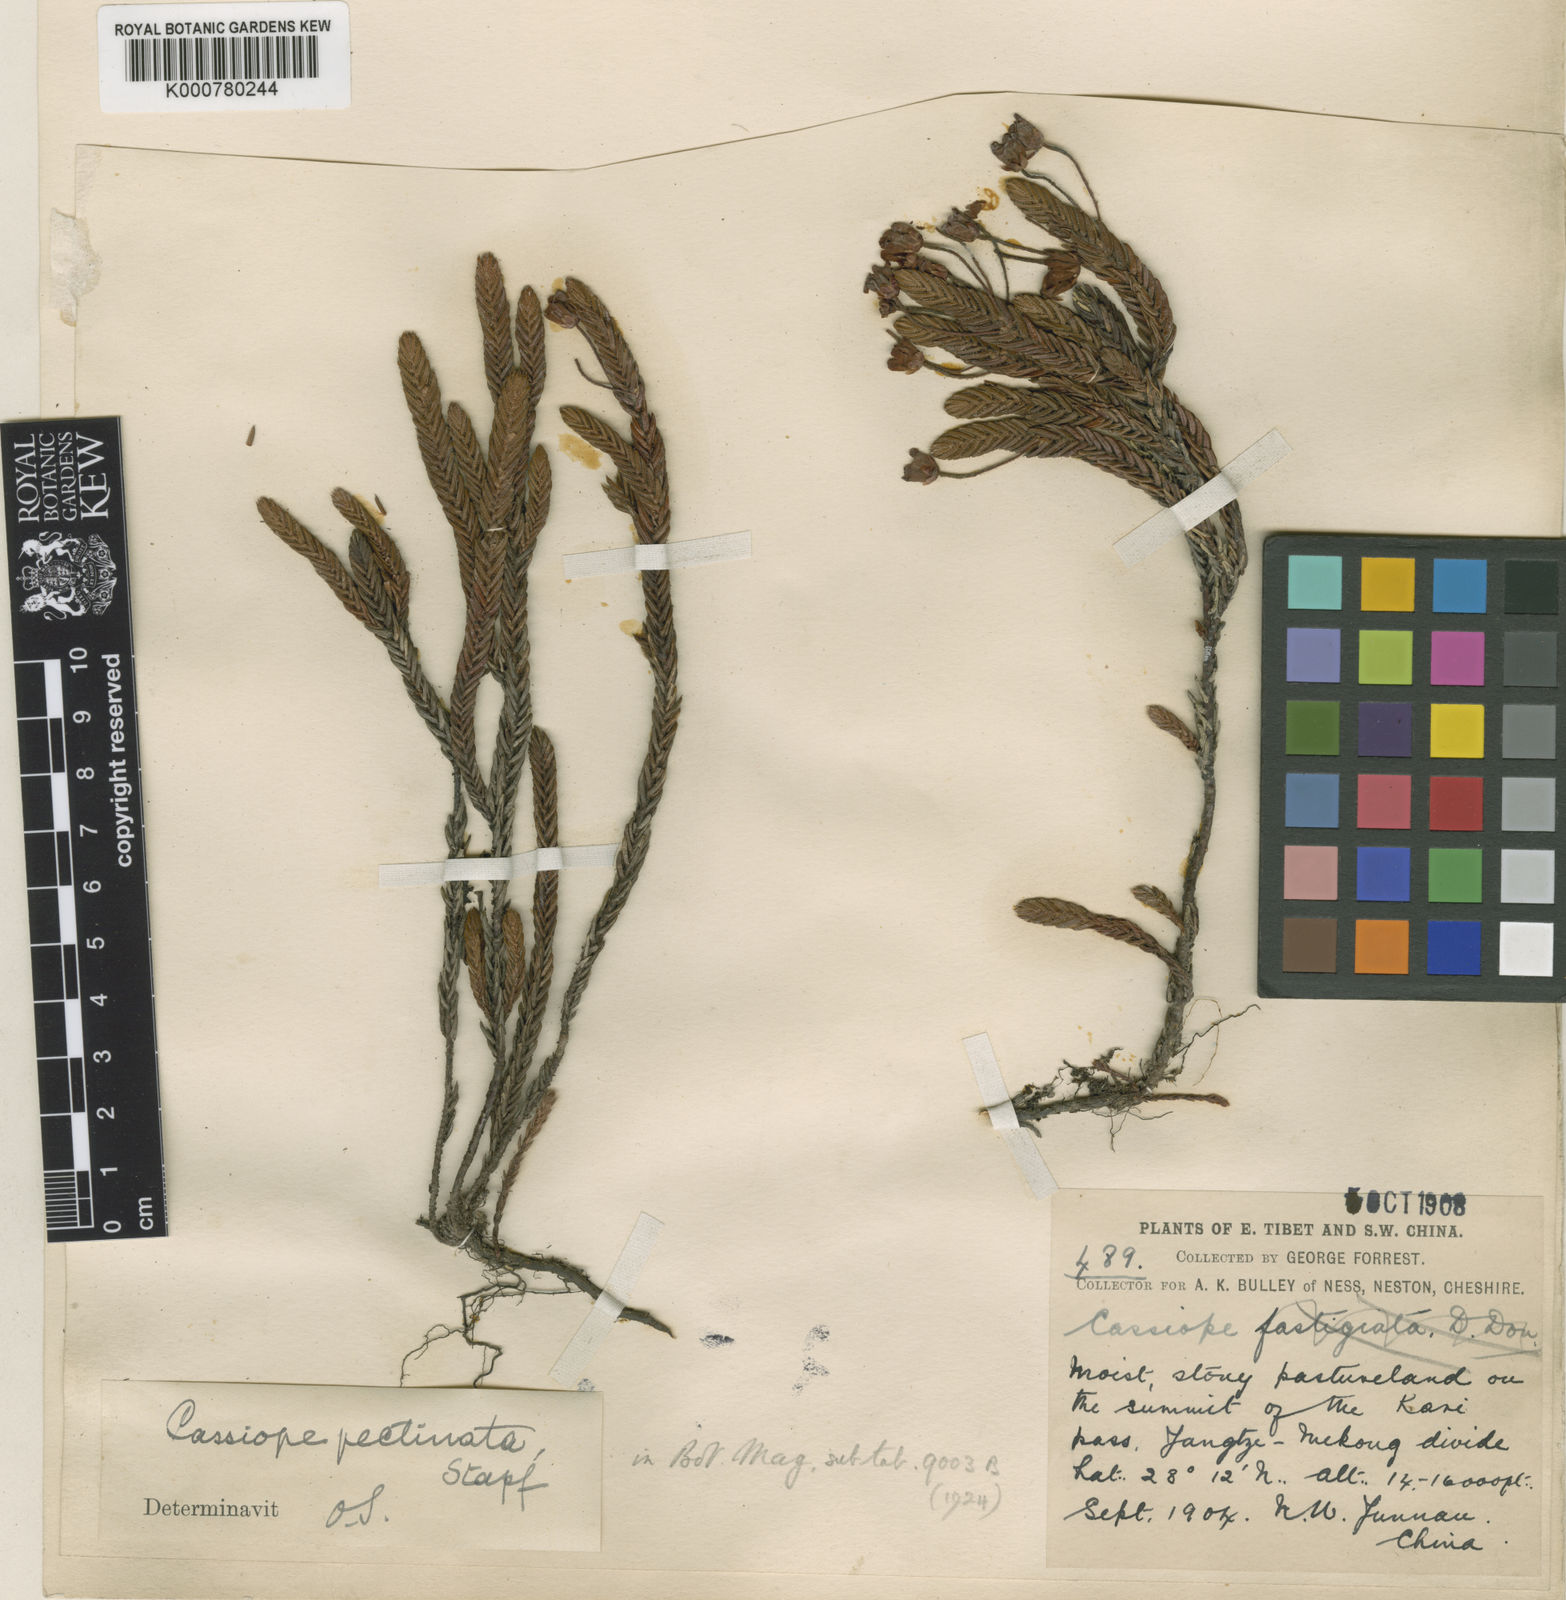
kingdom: Plantae
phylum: Tracheophyta
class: Magnoliopsida
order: Ericales
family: Ericaceae
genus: Cassiope
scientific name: Cassiope pectinata
